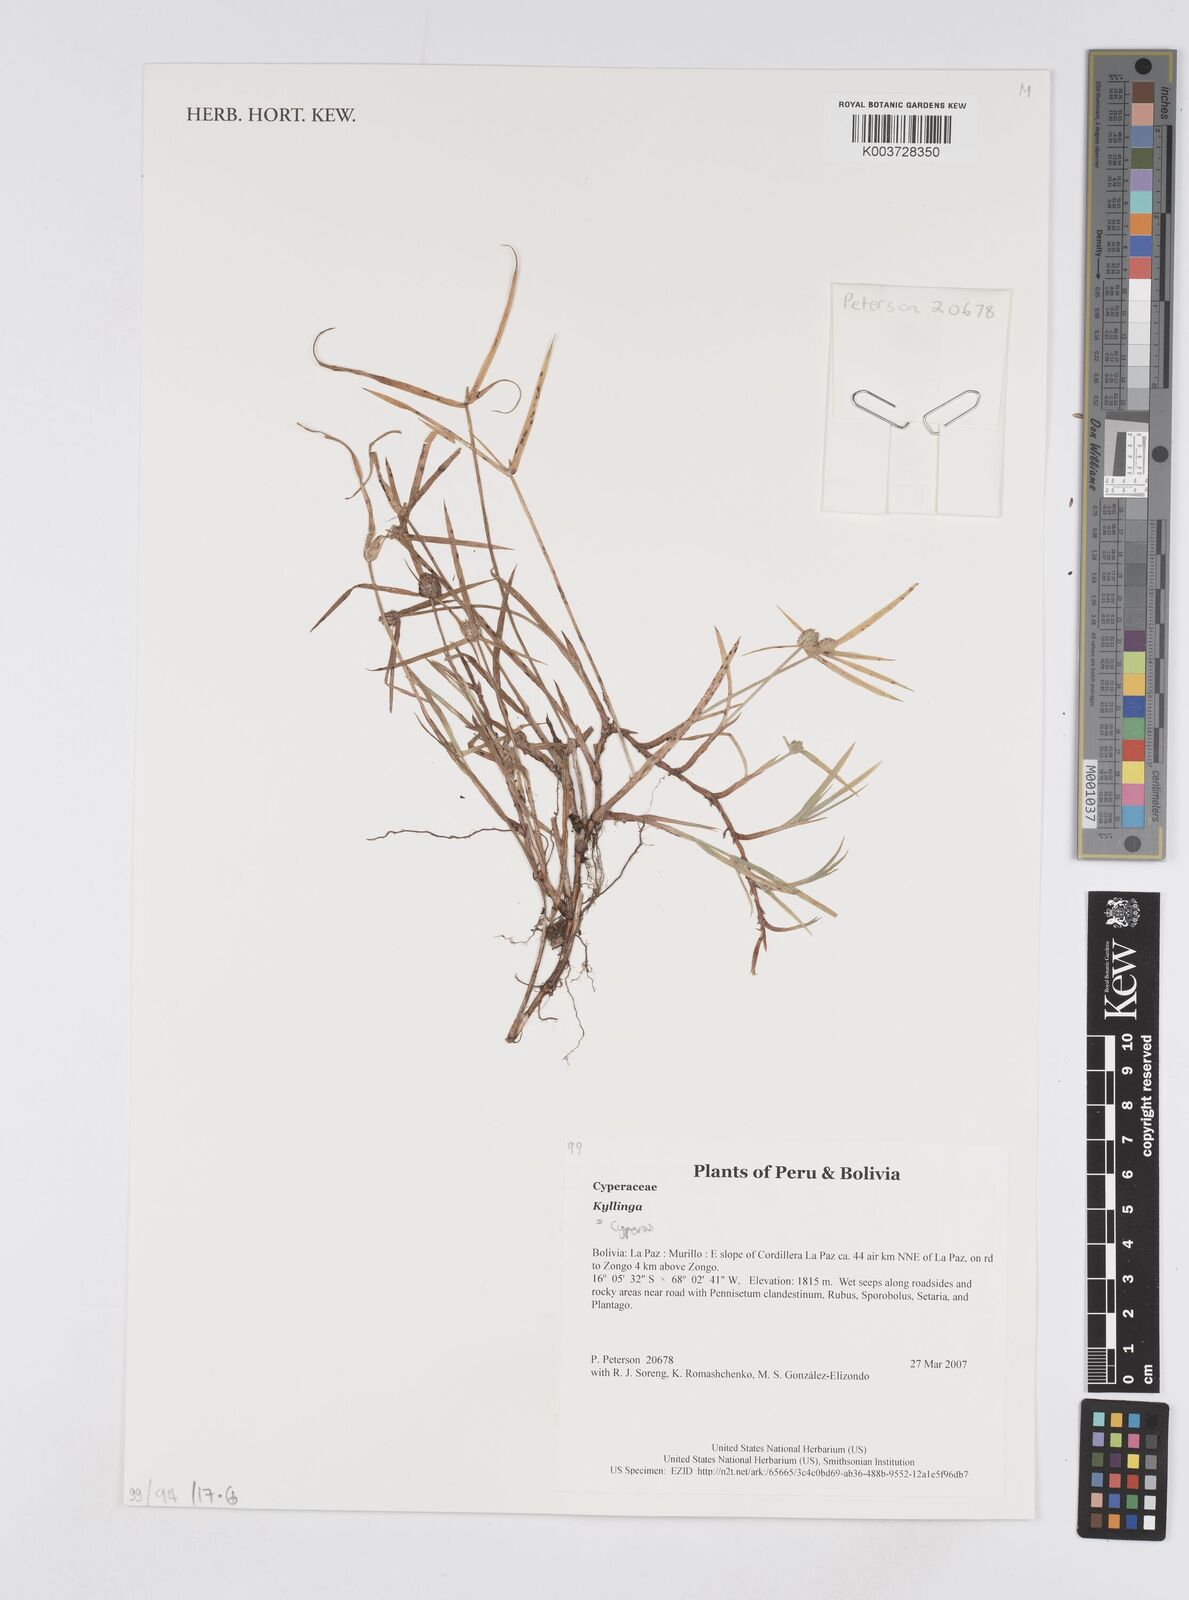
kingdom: Plantae
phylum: Tracheophyta
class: Liliopsida
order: Poales
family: Cyperaceae
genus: Cyperus
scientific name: Cyperus
